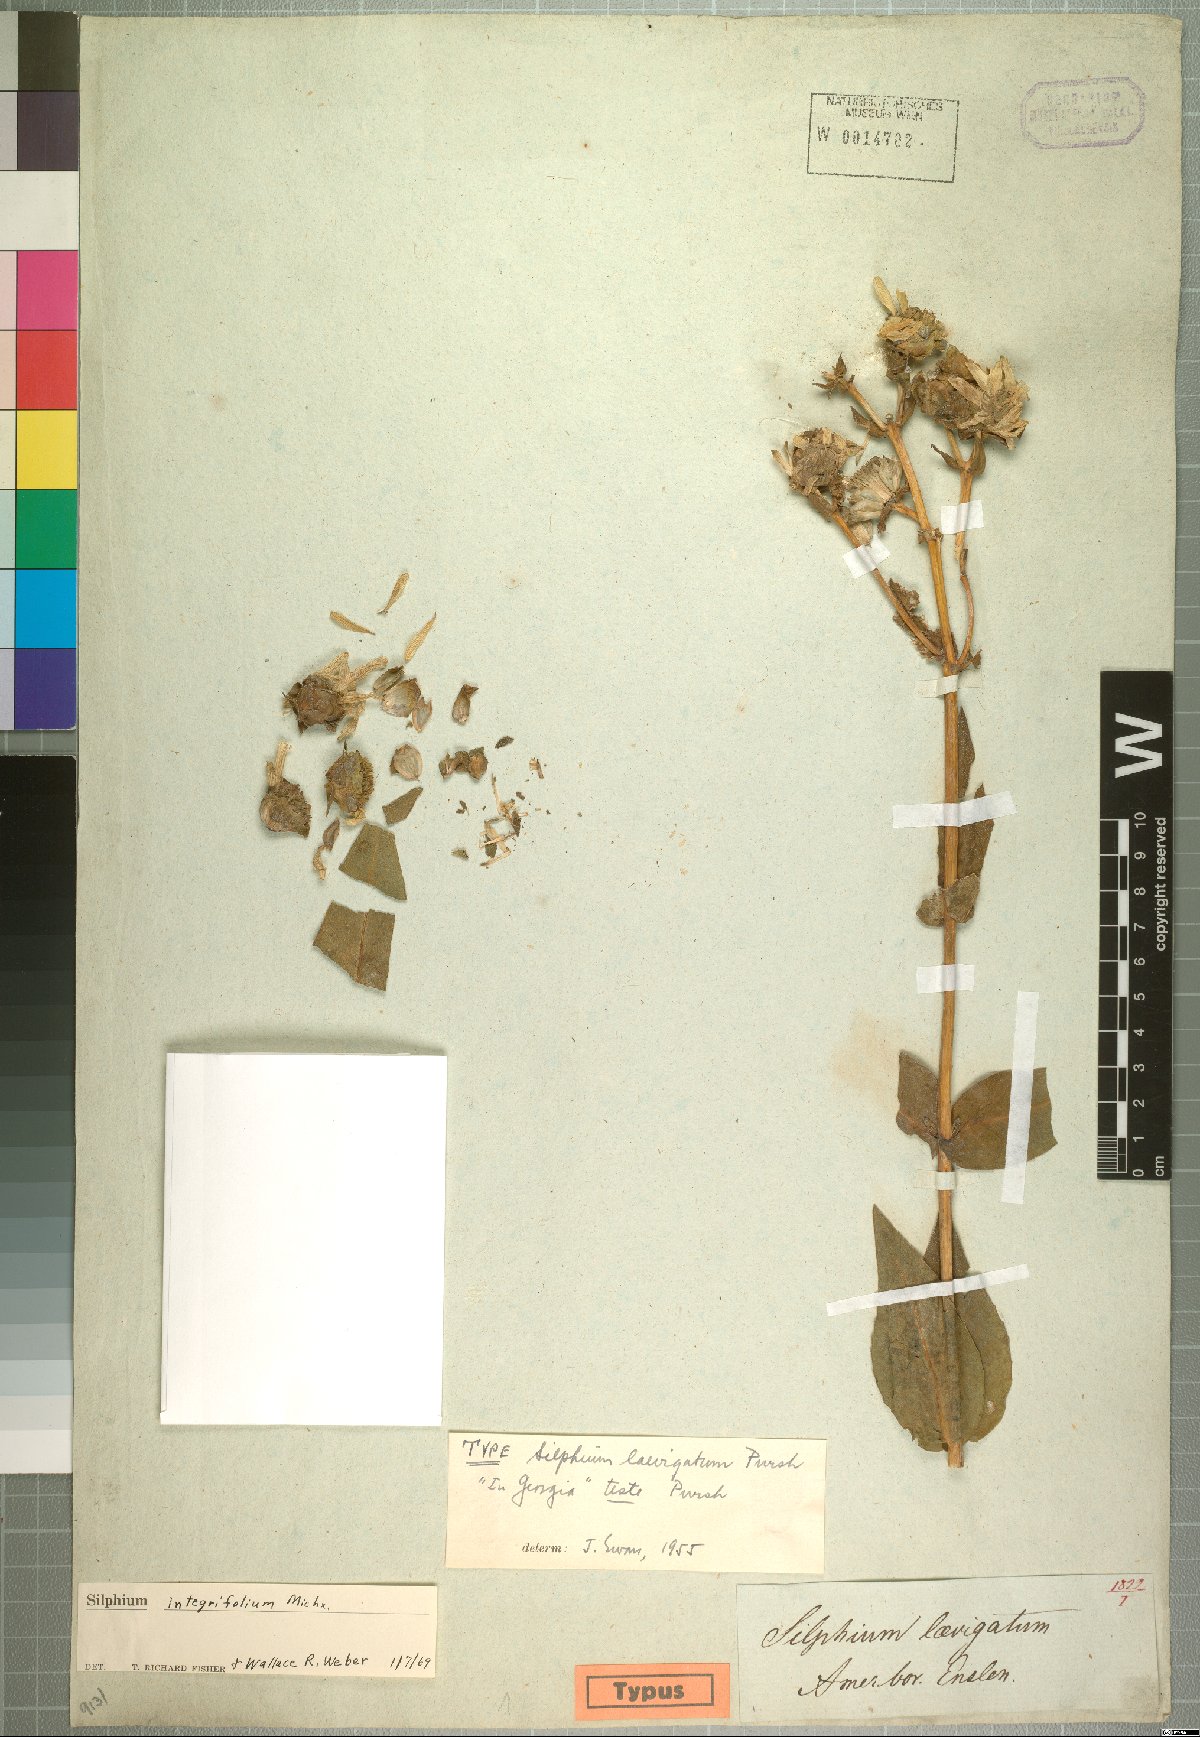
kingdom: Plantae
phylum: Tracheophyta
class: Magnoliopsida
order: Asterales
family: Asteraceae
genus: Silphium
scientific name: Silphium integrifolium
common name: Whole-leaf rosinweed
